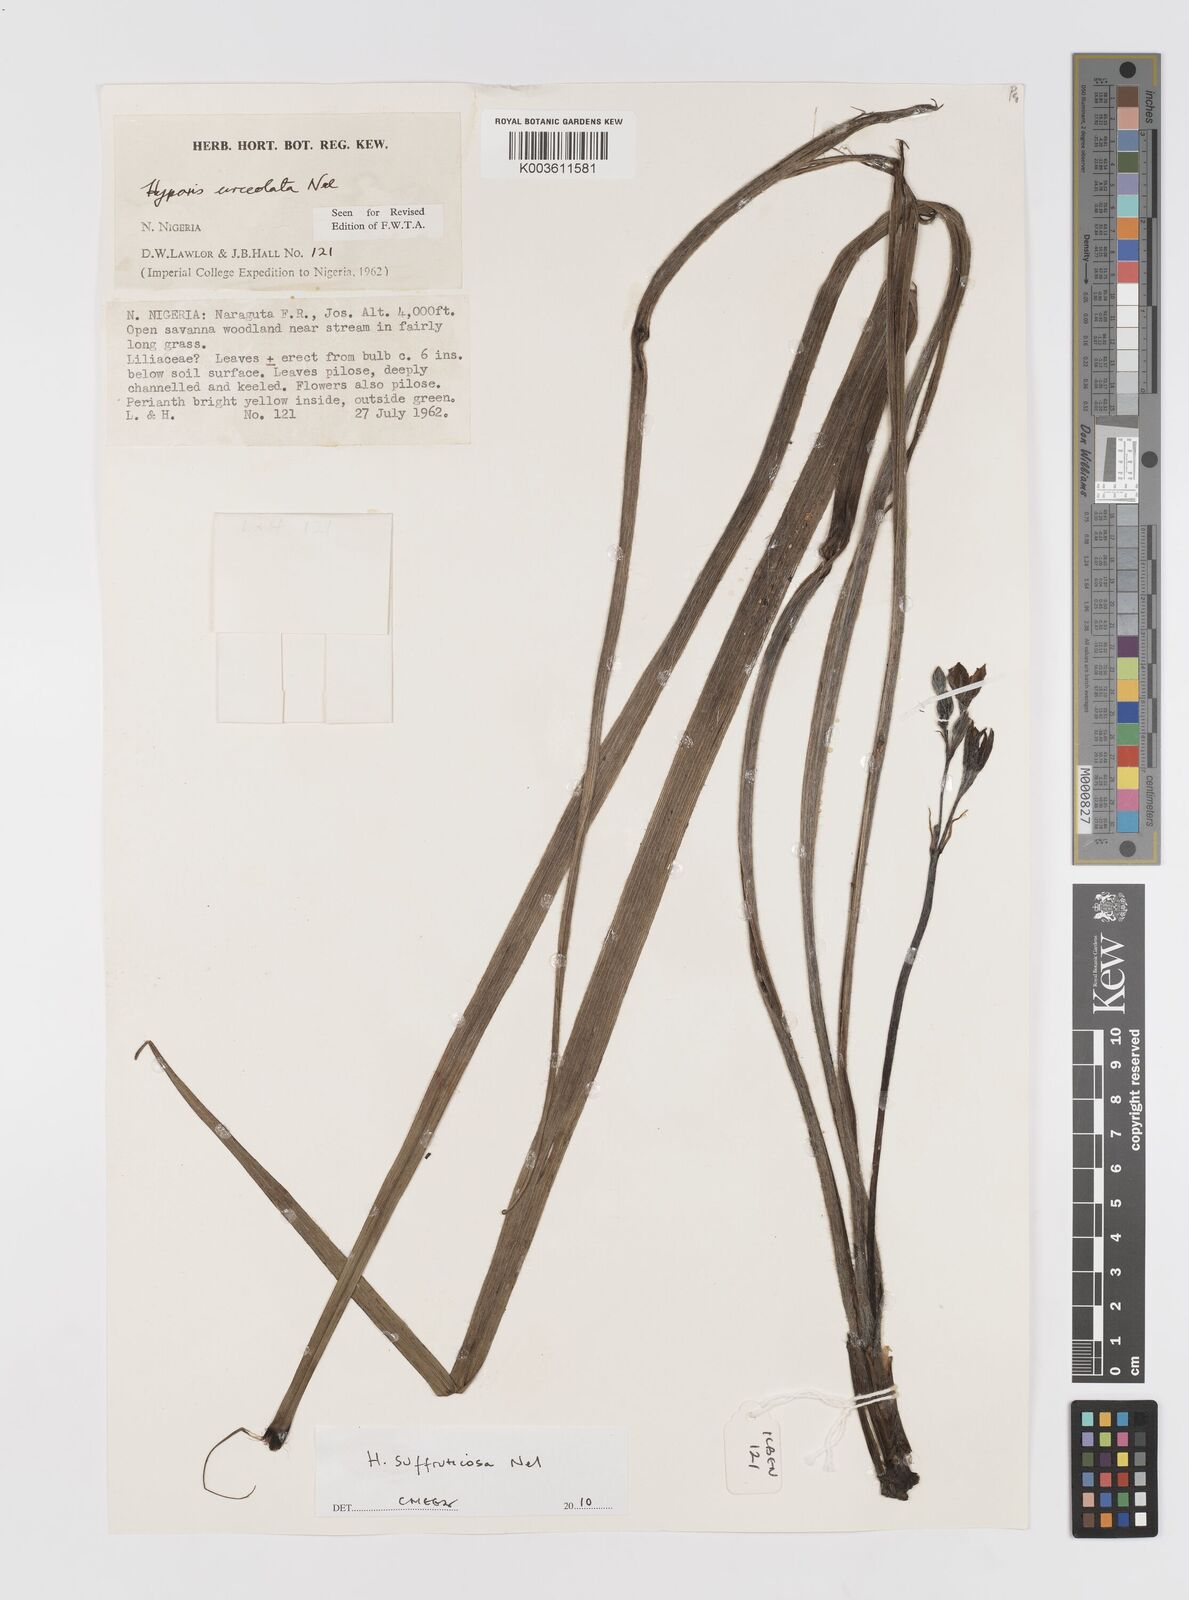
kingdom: Plantae
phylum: Tracheophyta
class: Liliopsida
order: Asparagales
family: Hypoxidaceae
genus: Hypoxis
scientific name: Hypoxis suffruticosa
